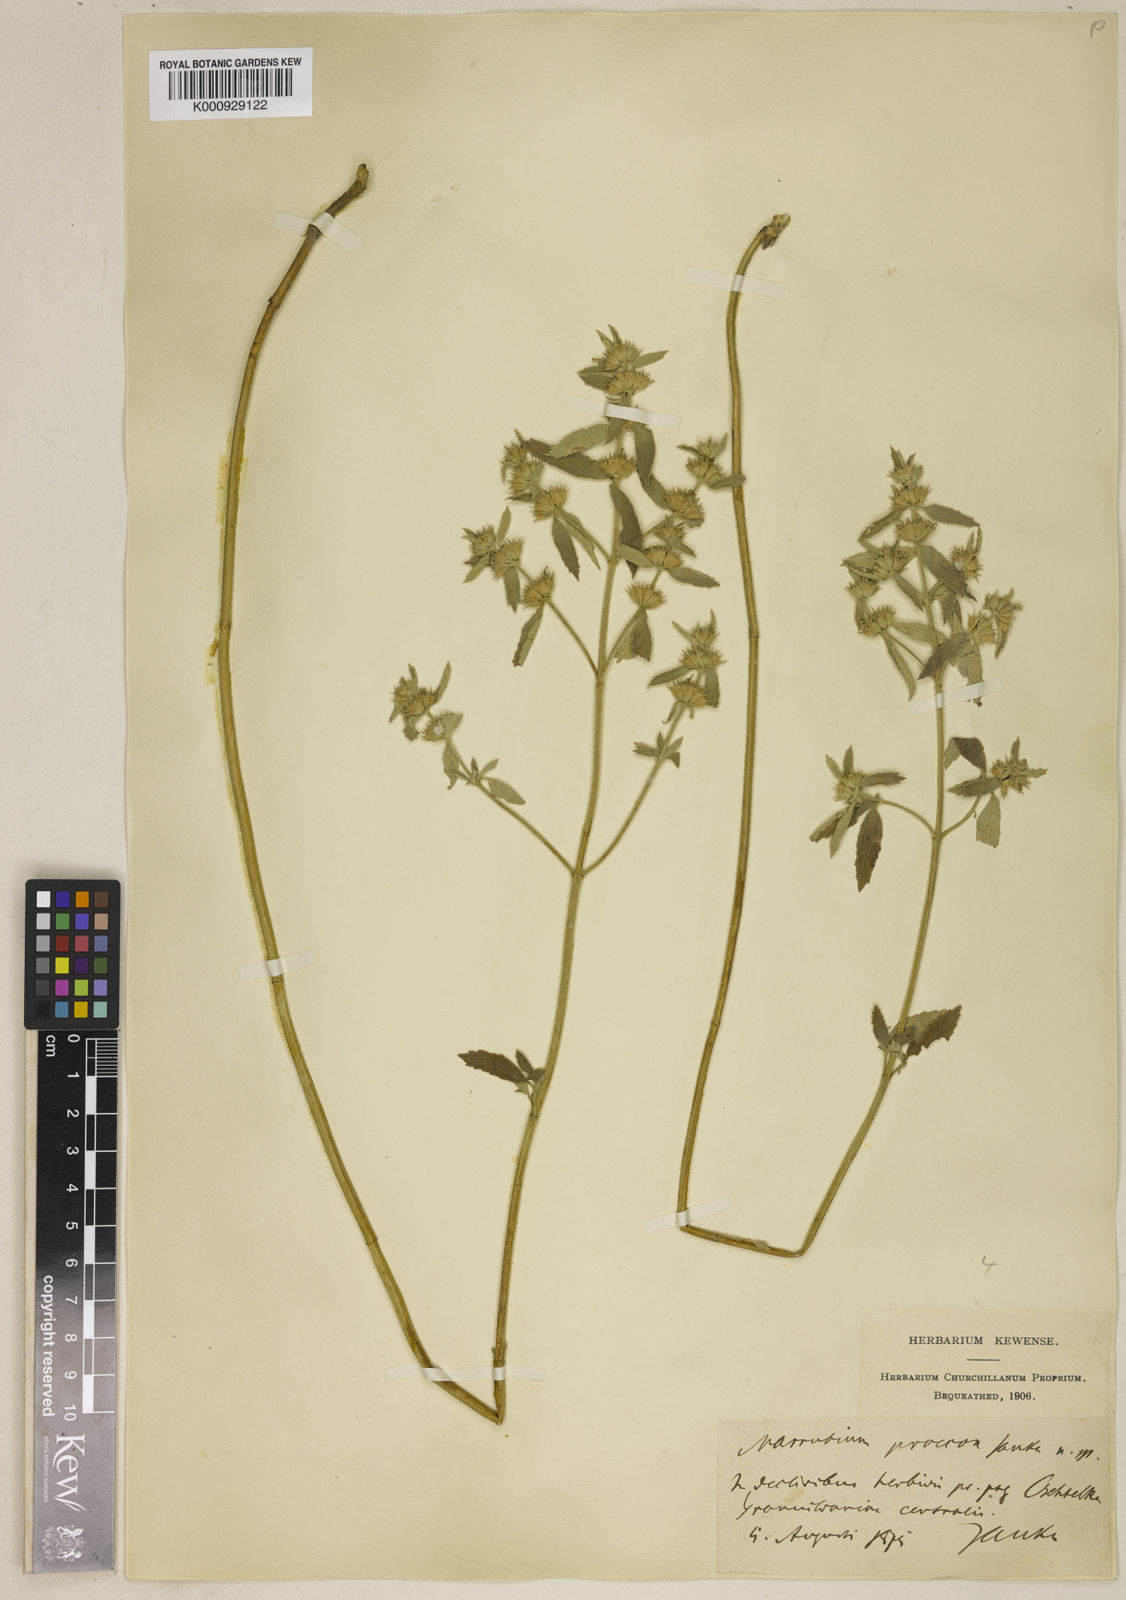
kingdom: Plantae
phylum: Tracheophyta
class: Magnoliopsida
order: Lamiales
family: Lamiaceae
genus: Marrubium
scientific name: Marrubium pestalozzae
